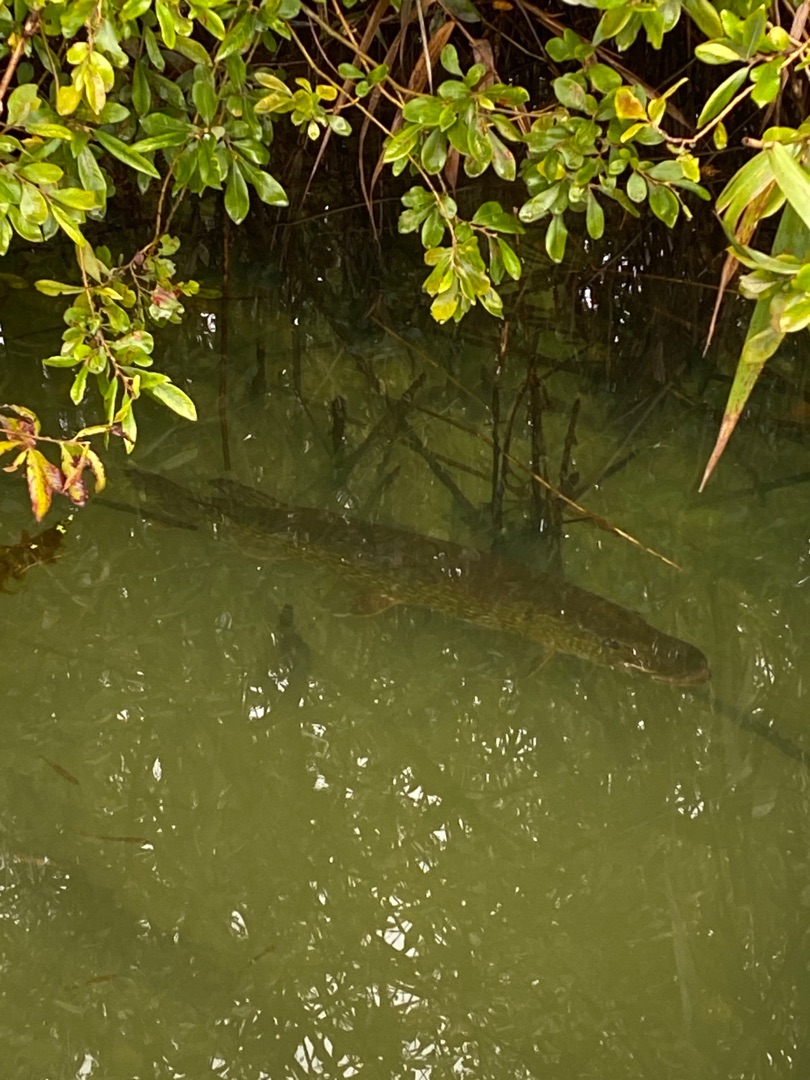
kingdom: Animalia
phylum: Chordata
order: Esociformes
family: Esocidae
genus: Esox
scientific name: Esox lucius
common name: Gedde
